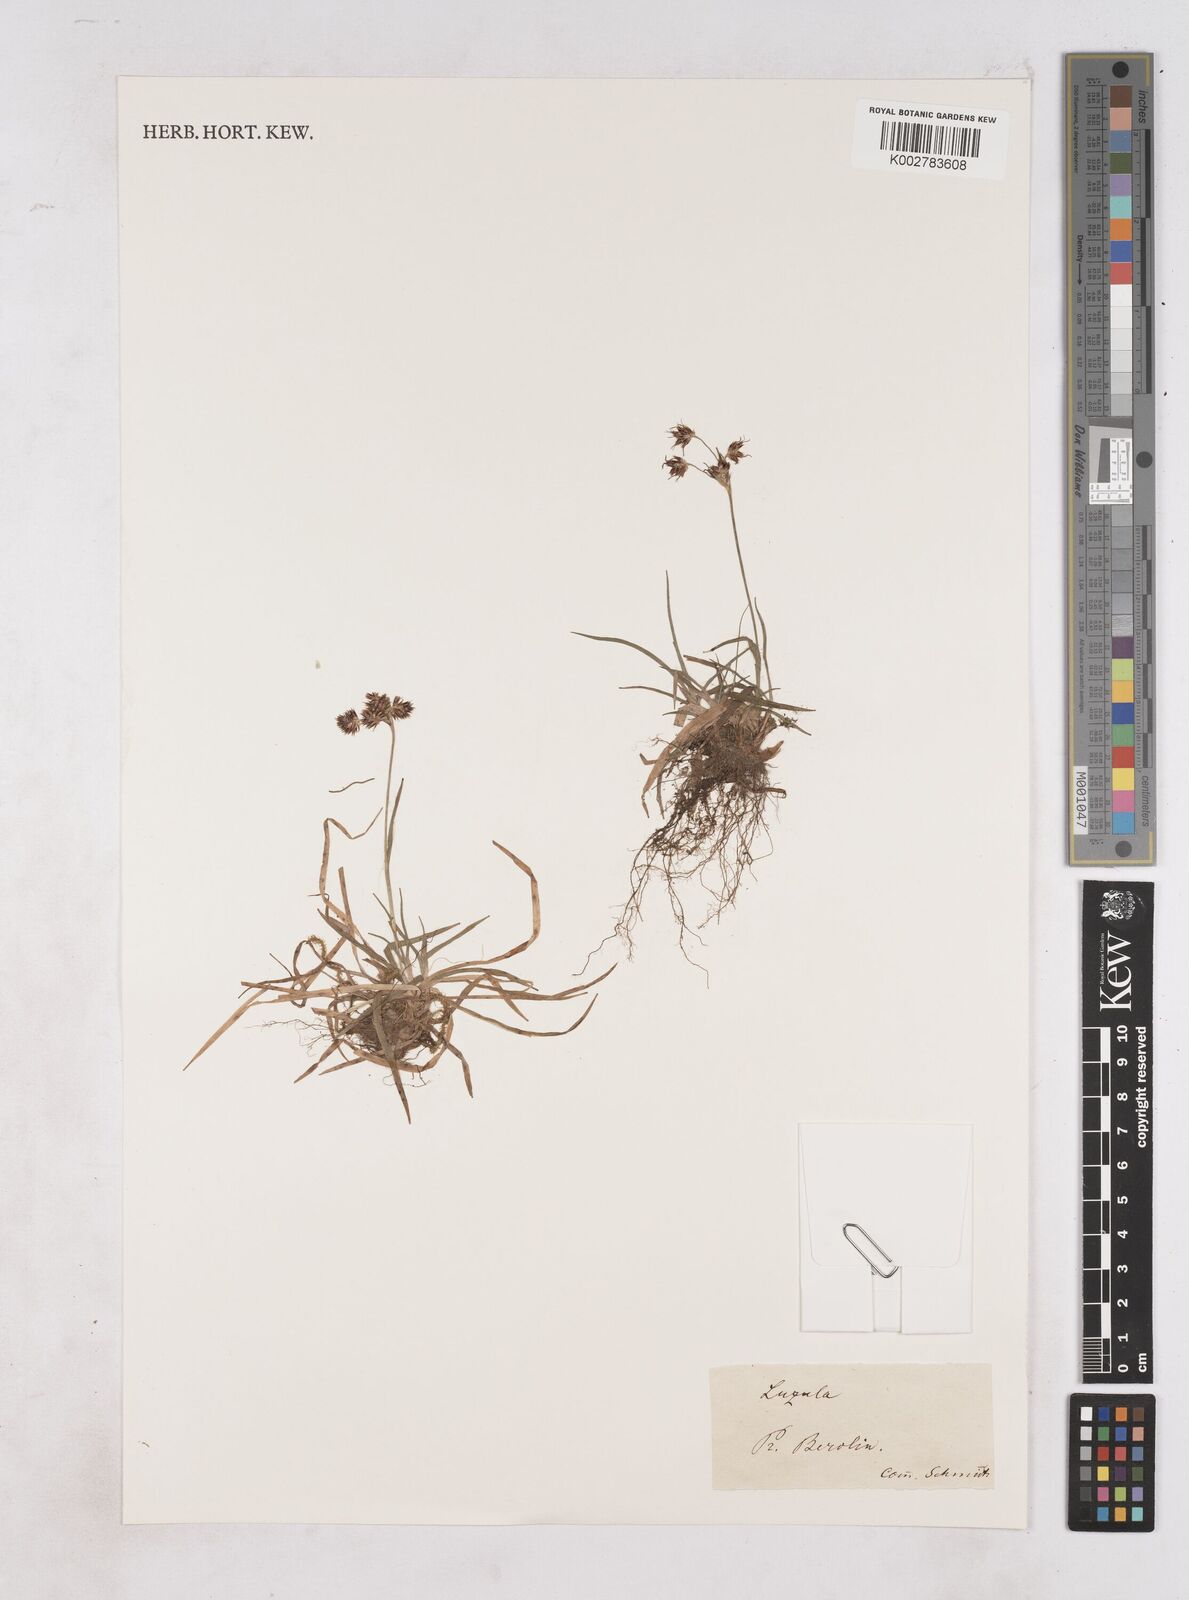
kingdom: Plantae
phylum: Tracheophyta
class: Liliopsida
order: Poales
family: Juncaceae
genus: Luzula
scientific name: Luzula
